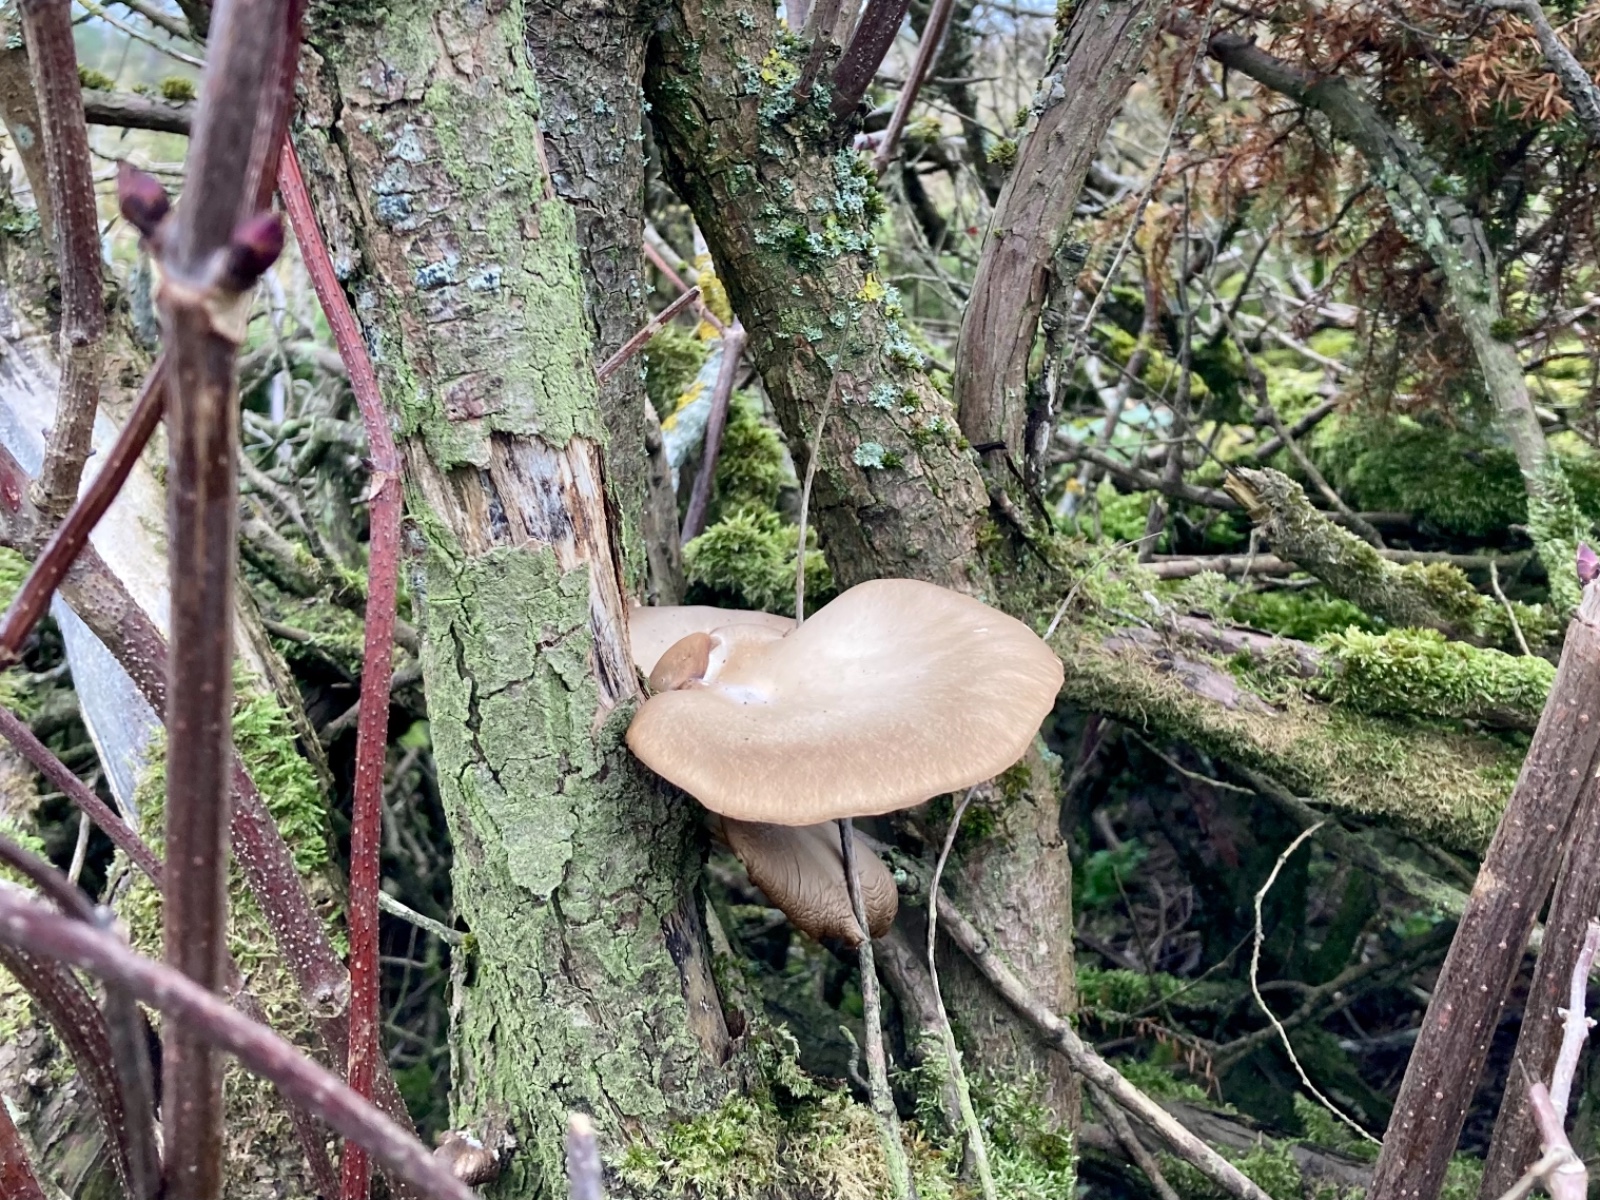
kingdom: Fungi
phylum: Basidiomycota
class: Agaricomycetes
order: Agaricales
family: Pleurotaceae
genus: Pleurotus
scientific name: Pleurotus ostreatus
